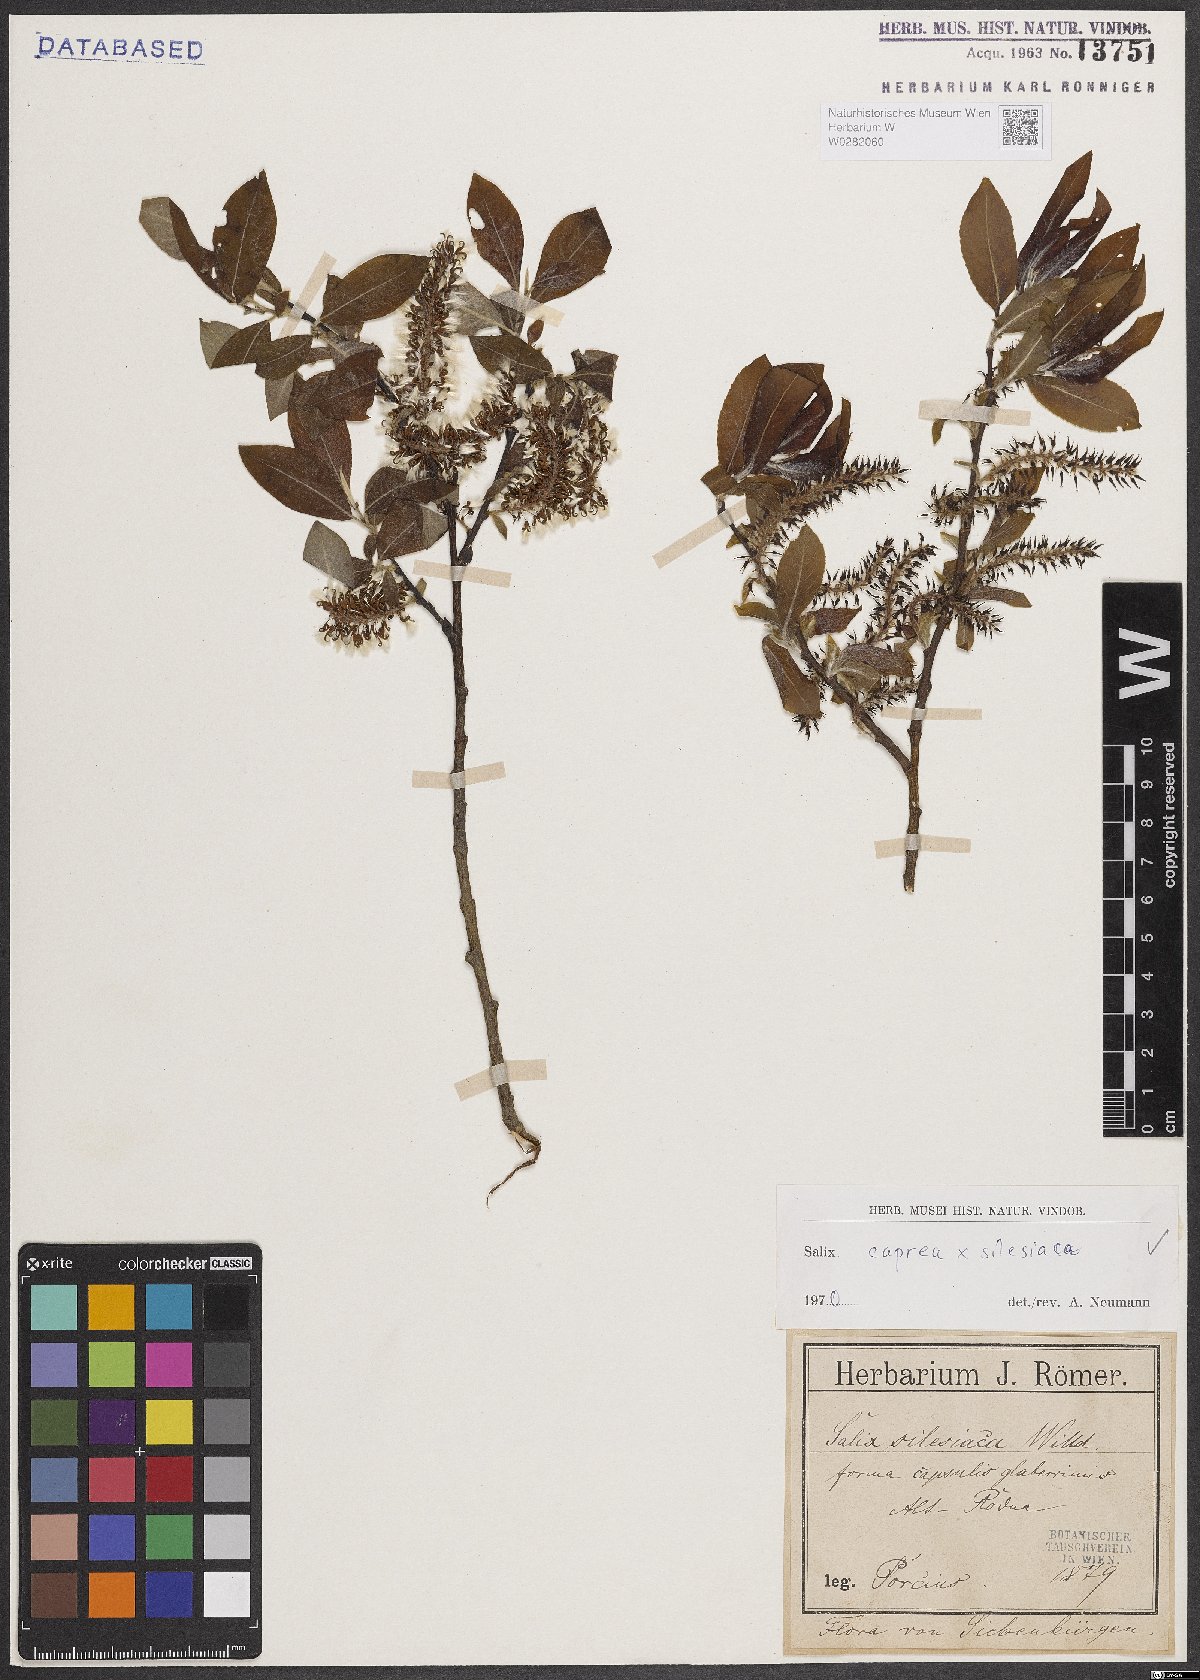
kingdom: Plantae
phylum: Tracheophyta
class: Magnoliopsida
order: Malpighiales
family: Salicaceae
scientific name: Salicaceae
